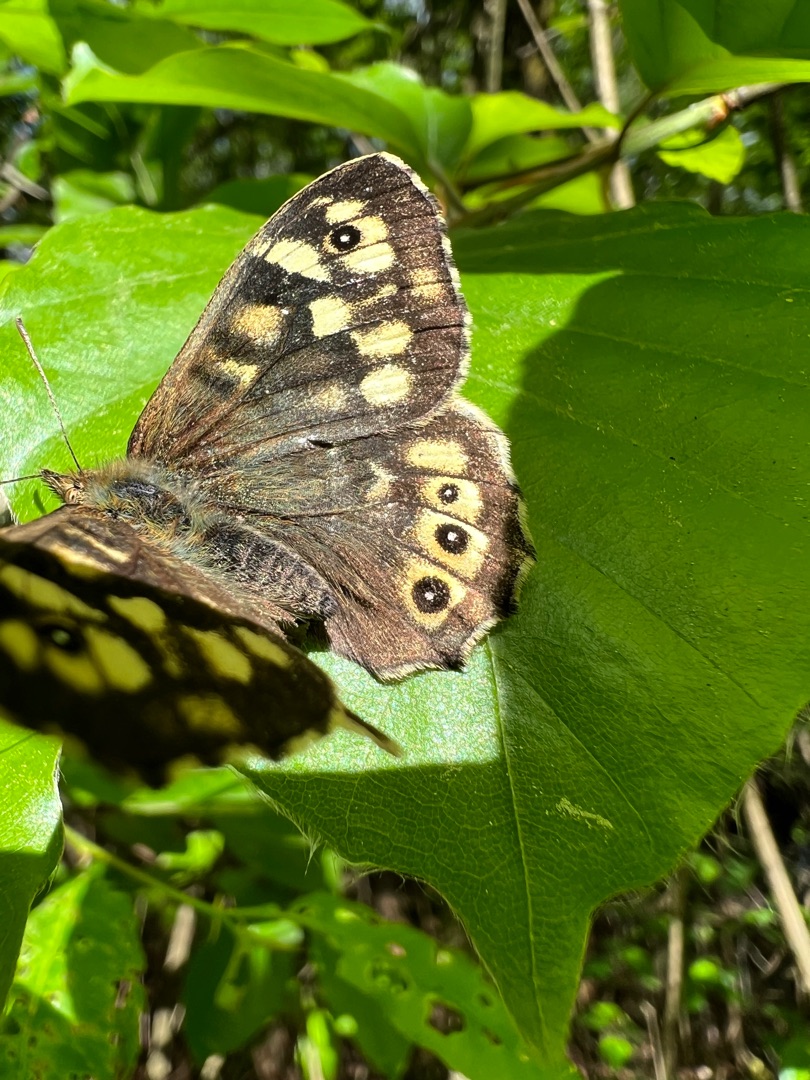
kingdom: Animalia
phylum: Arthropoda
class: Insecta
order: Lepidoptera
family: Nymphalidae
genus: Pararge
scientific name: Pararge aegeria
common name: Skovrandøje
